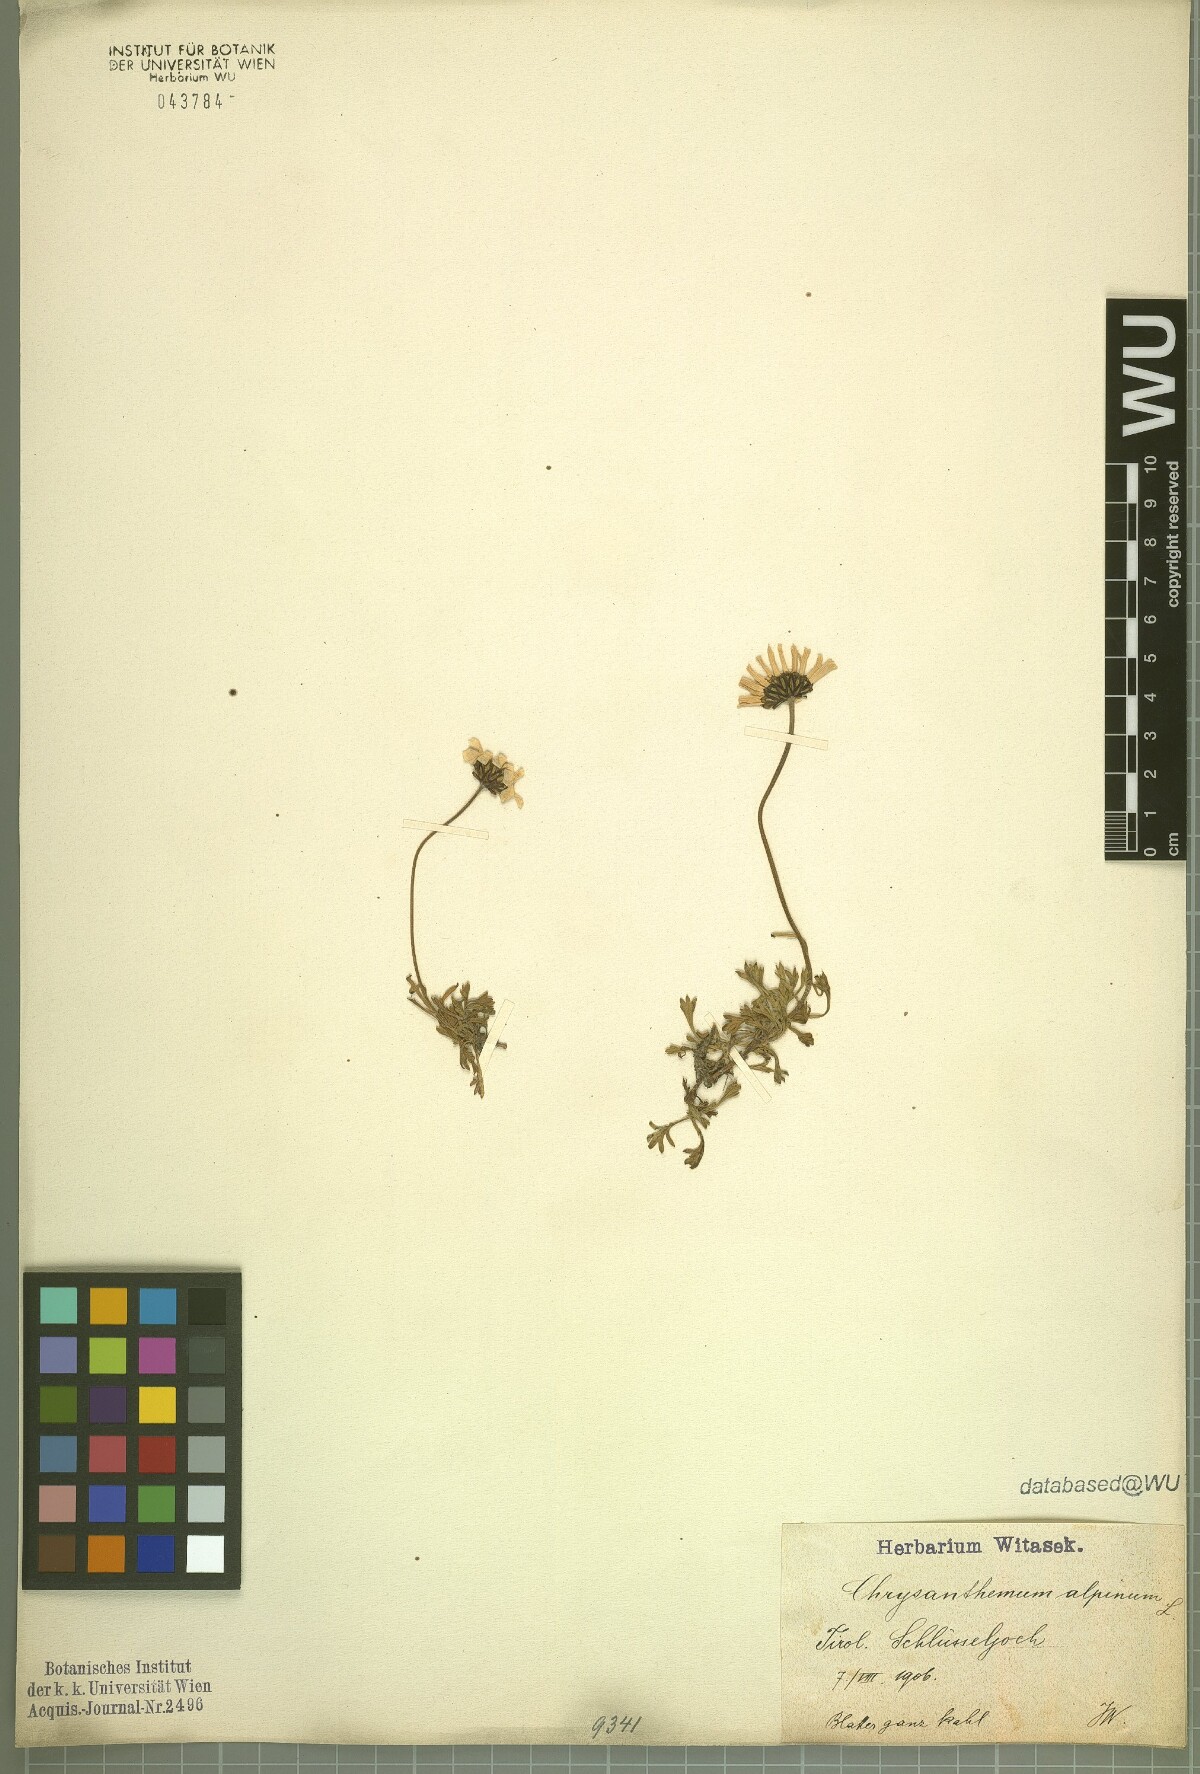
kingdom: Plantae
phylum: Tracheophyta
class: Magnoliopsida
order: Asterales
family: Asteraceae
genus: Leucanthemopsis
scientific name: Leucanthemopsis alpina
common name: Alpine moon daisy
